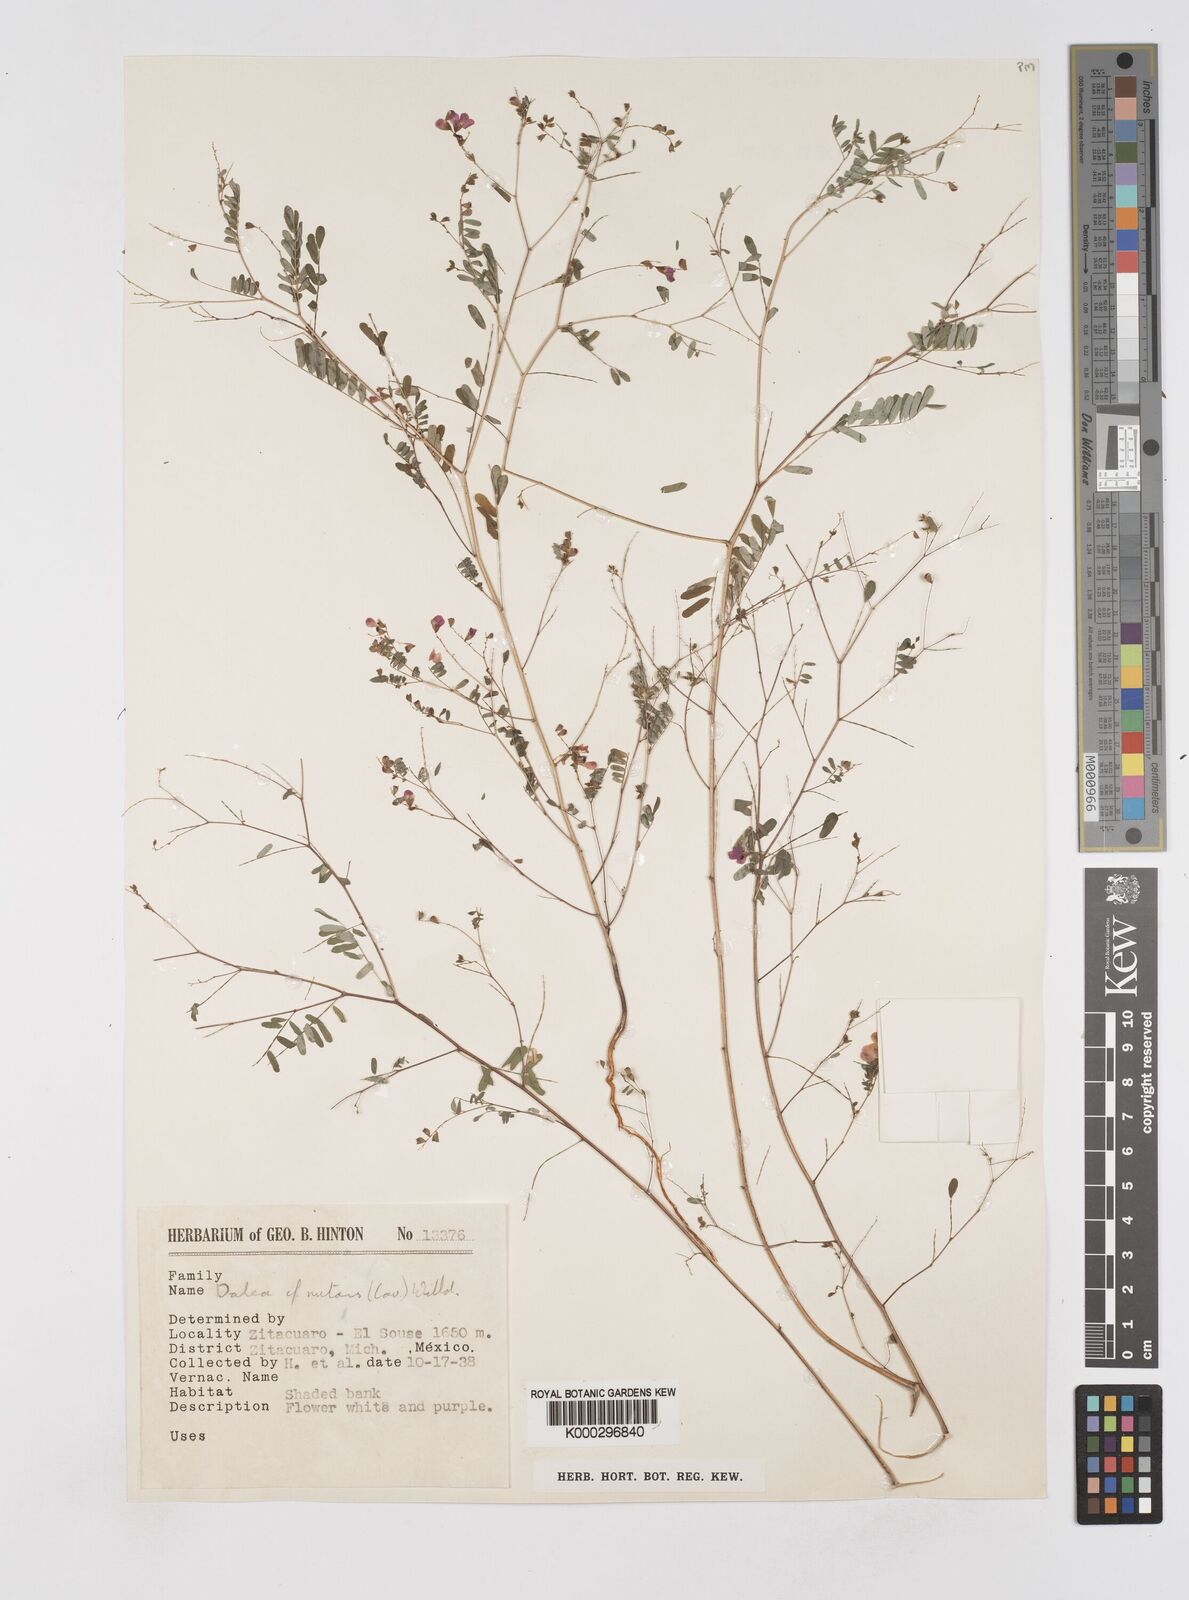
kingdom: Plantae
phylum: Tracheophyta
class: Magnoliopsida
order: Fabales
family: Fabaceae
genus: Marina
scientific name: Marina nutans
